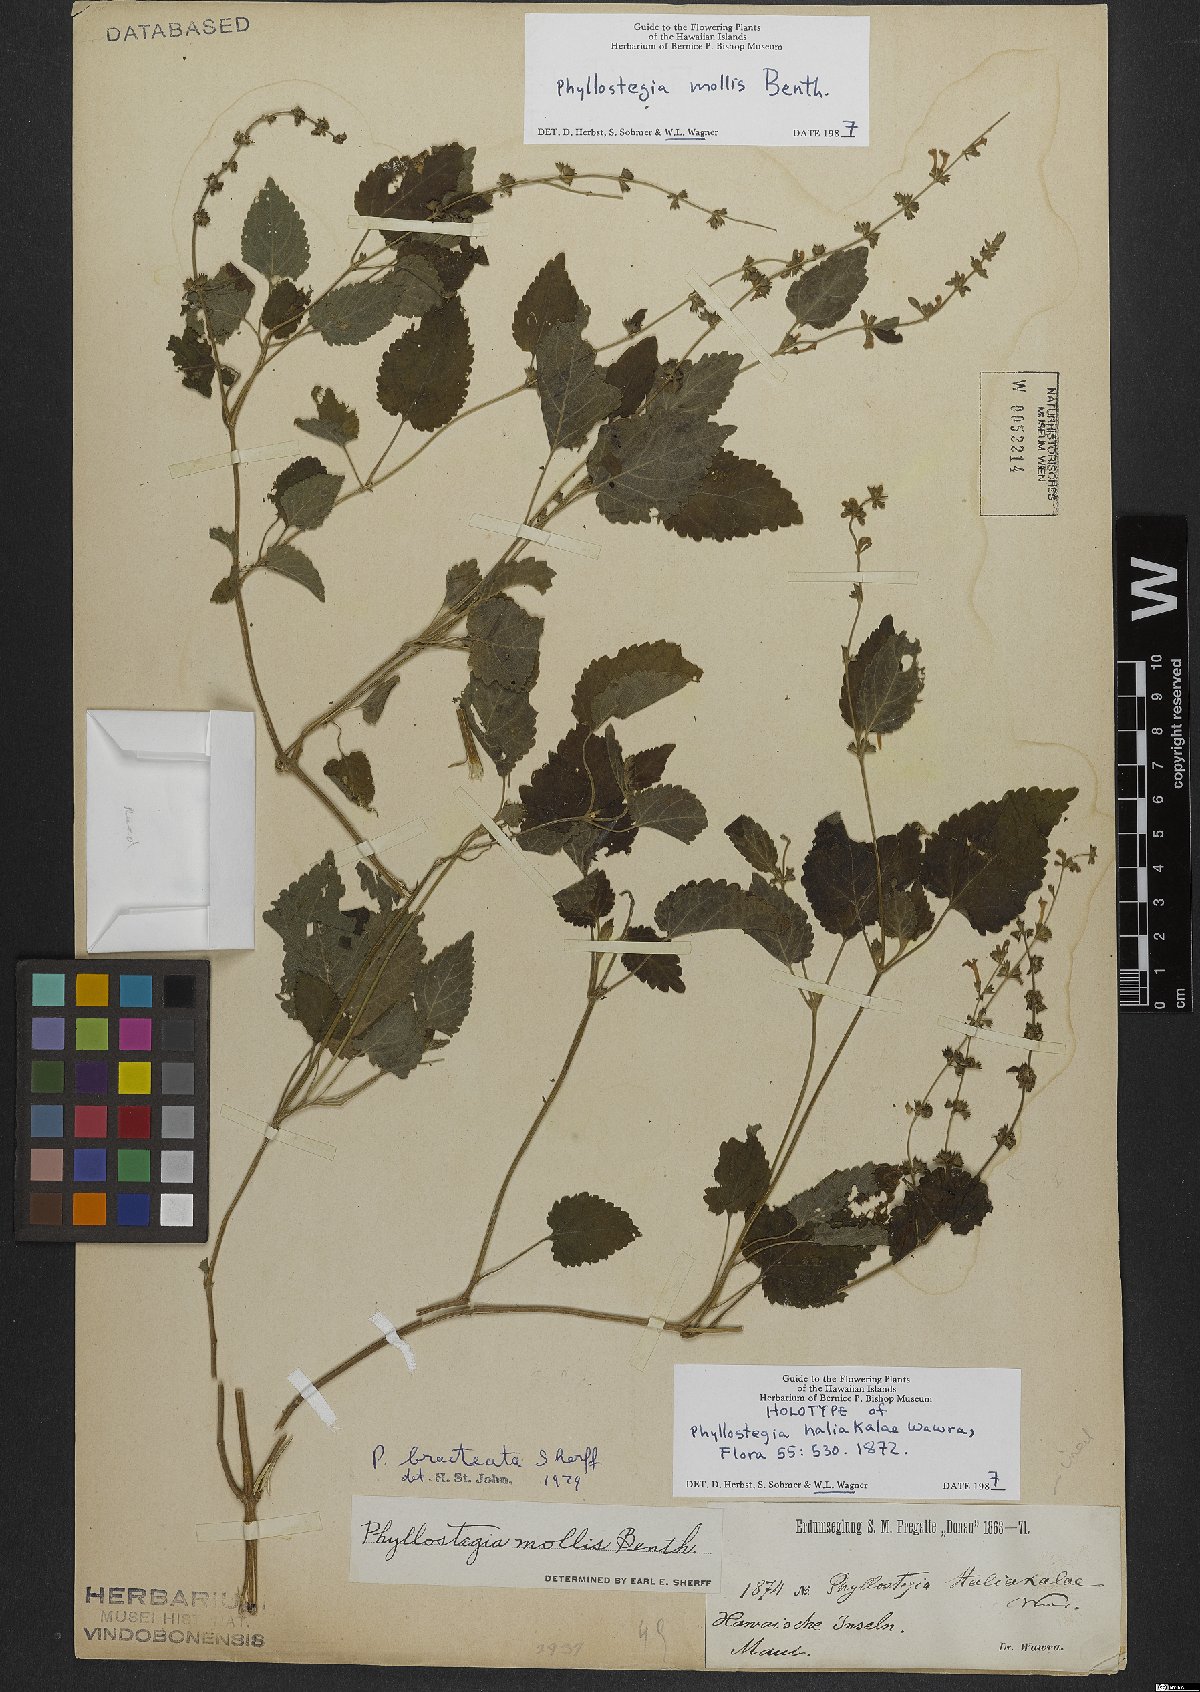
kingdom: Plantae
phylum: Tracheophyta
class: Magnoliopsida
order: Lamiales
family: Lamiaceae
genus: Phyllostegia
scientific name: Phyllostegia mollis
